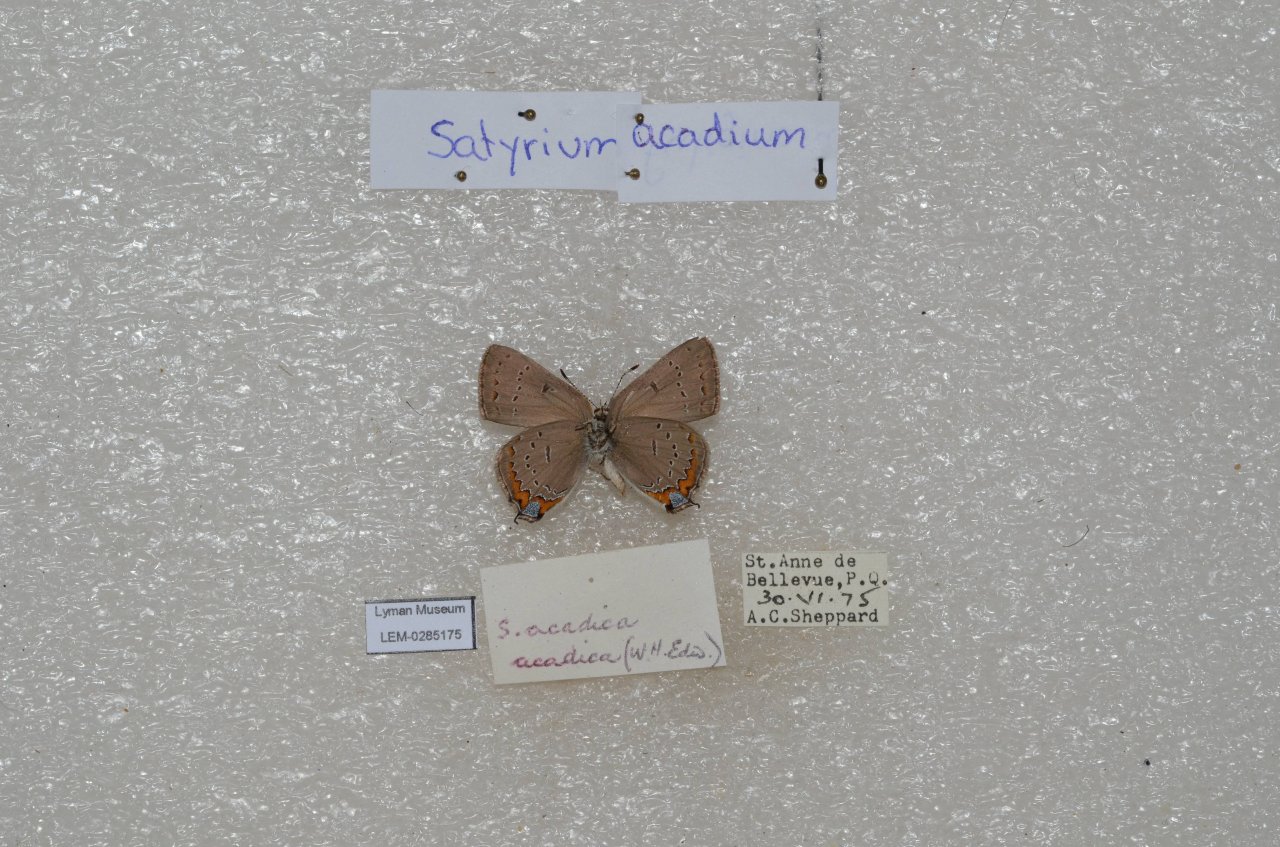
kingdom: Animalia
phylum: Arthropoda
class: Insecta
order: Lepidoptera
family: Lycaenidae
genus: Strymon
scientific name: Strymon acadica
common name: Acadian Hairstreak
